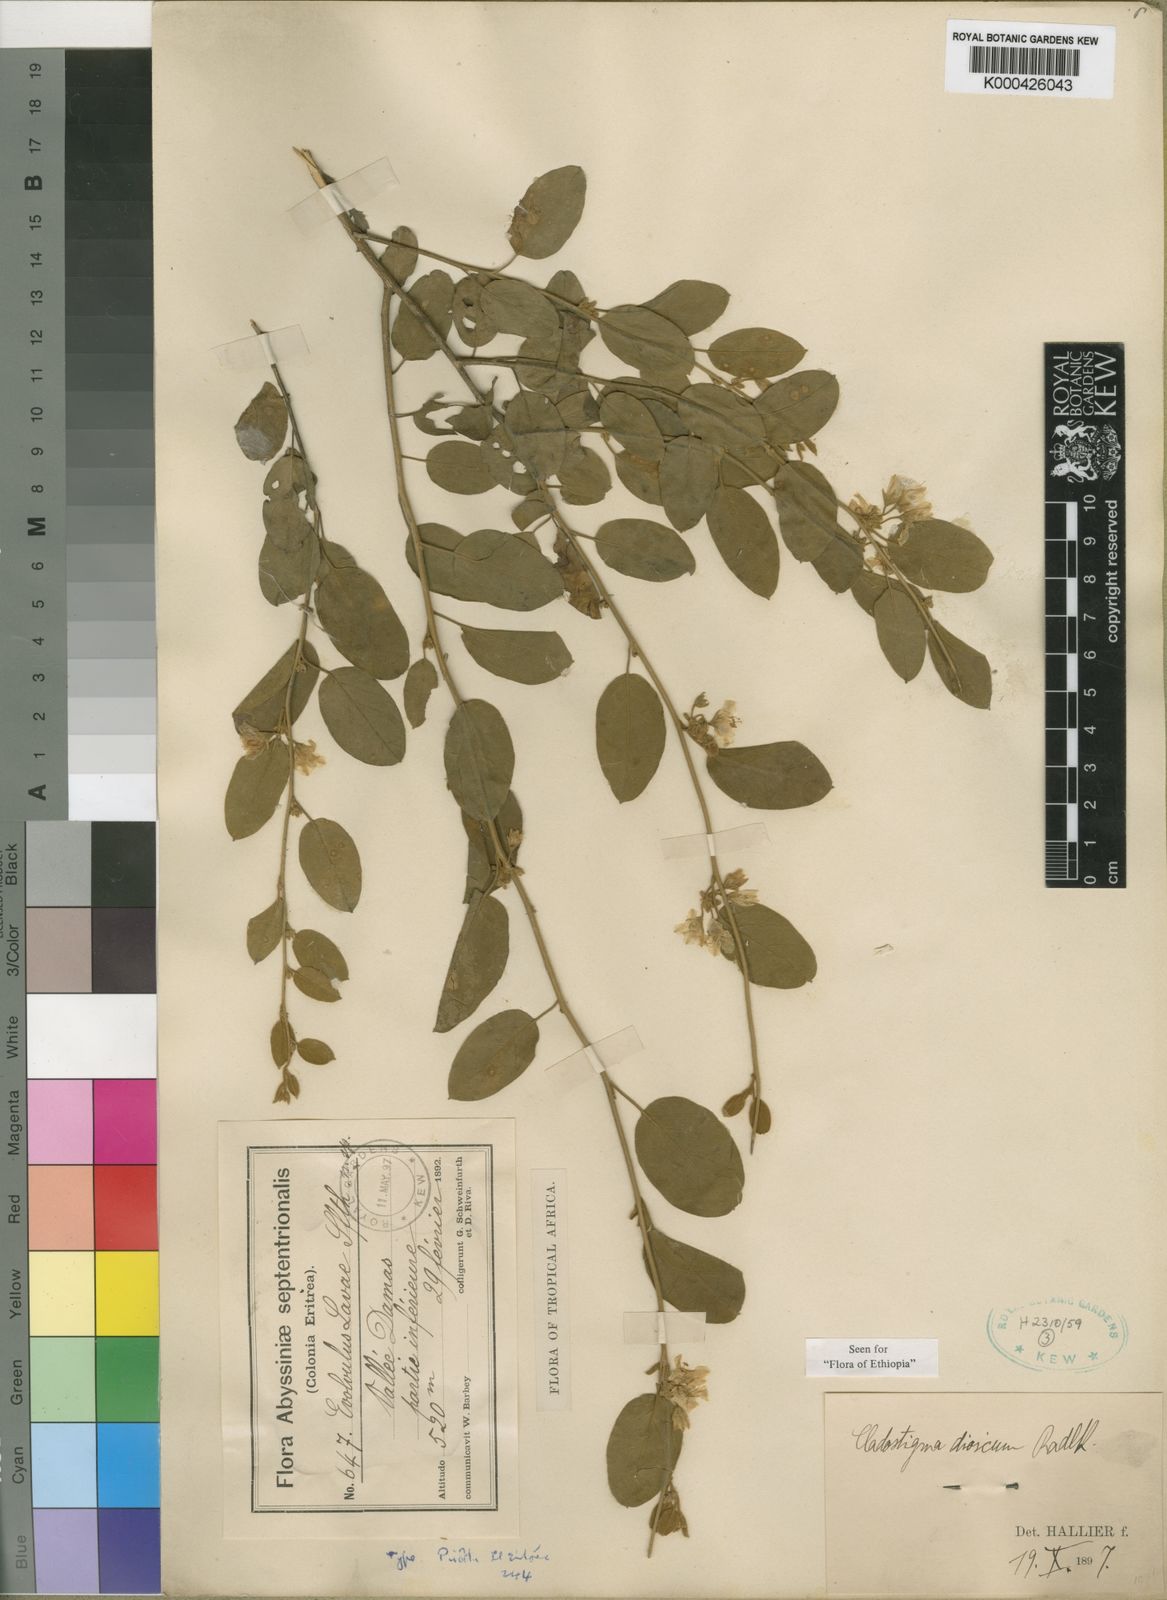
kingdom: Plantae
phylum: Tracheophyta
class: Magnoliopsida
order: Solanales
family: Convolvulaceae
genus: Cladostigma
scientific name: Cladostigma dioicum
